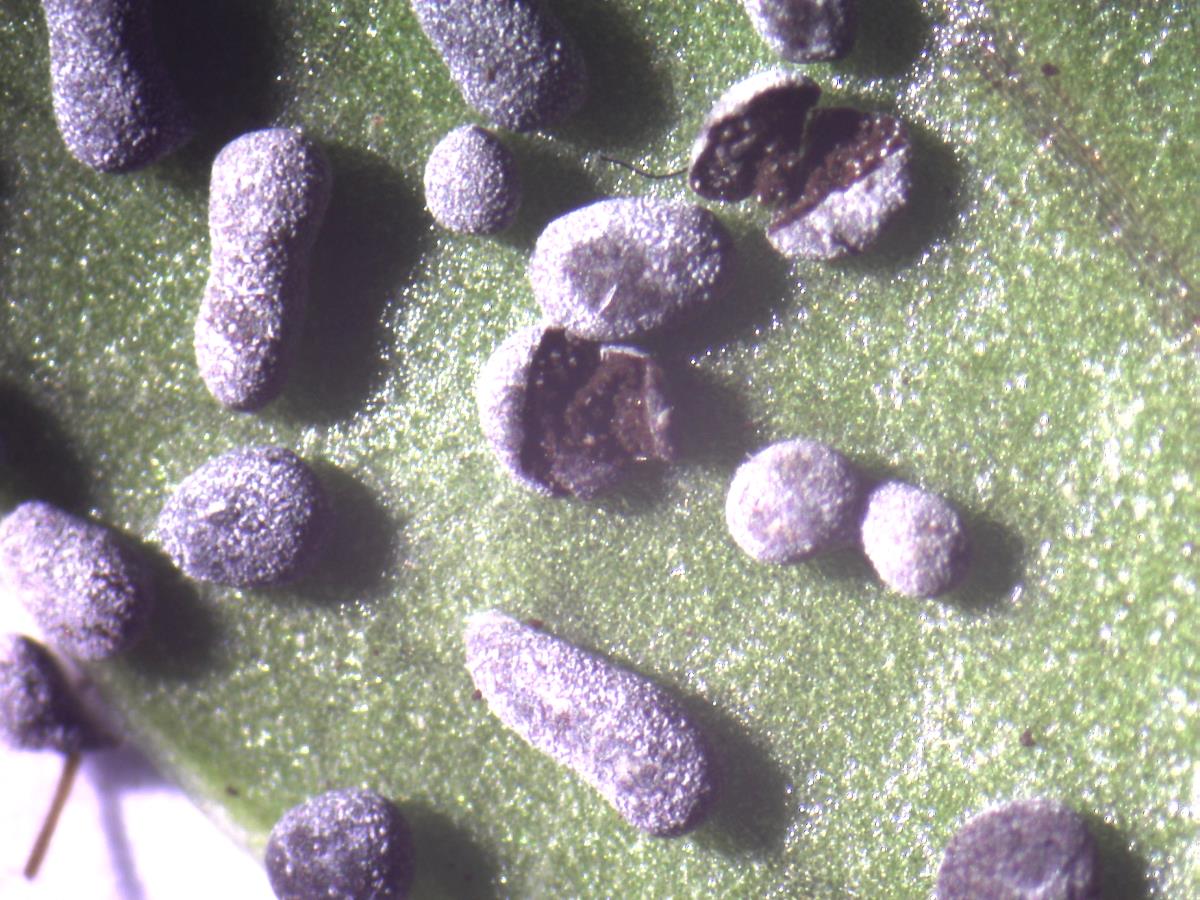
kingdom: Protozoa
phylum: Mycetozoa
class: Myxomycetes
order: Physarales
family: Physaraceae
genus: Physarum
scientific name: Physarum cinereum
